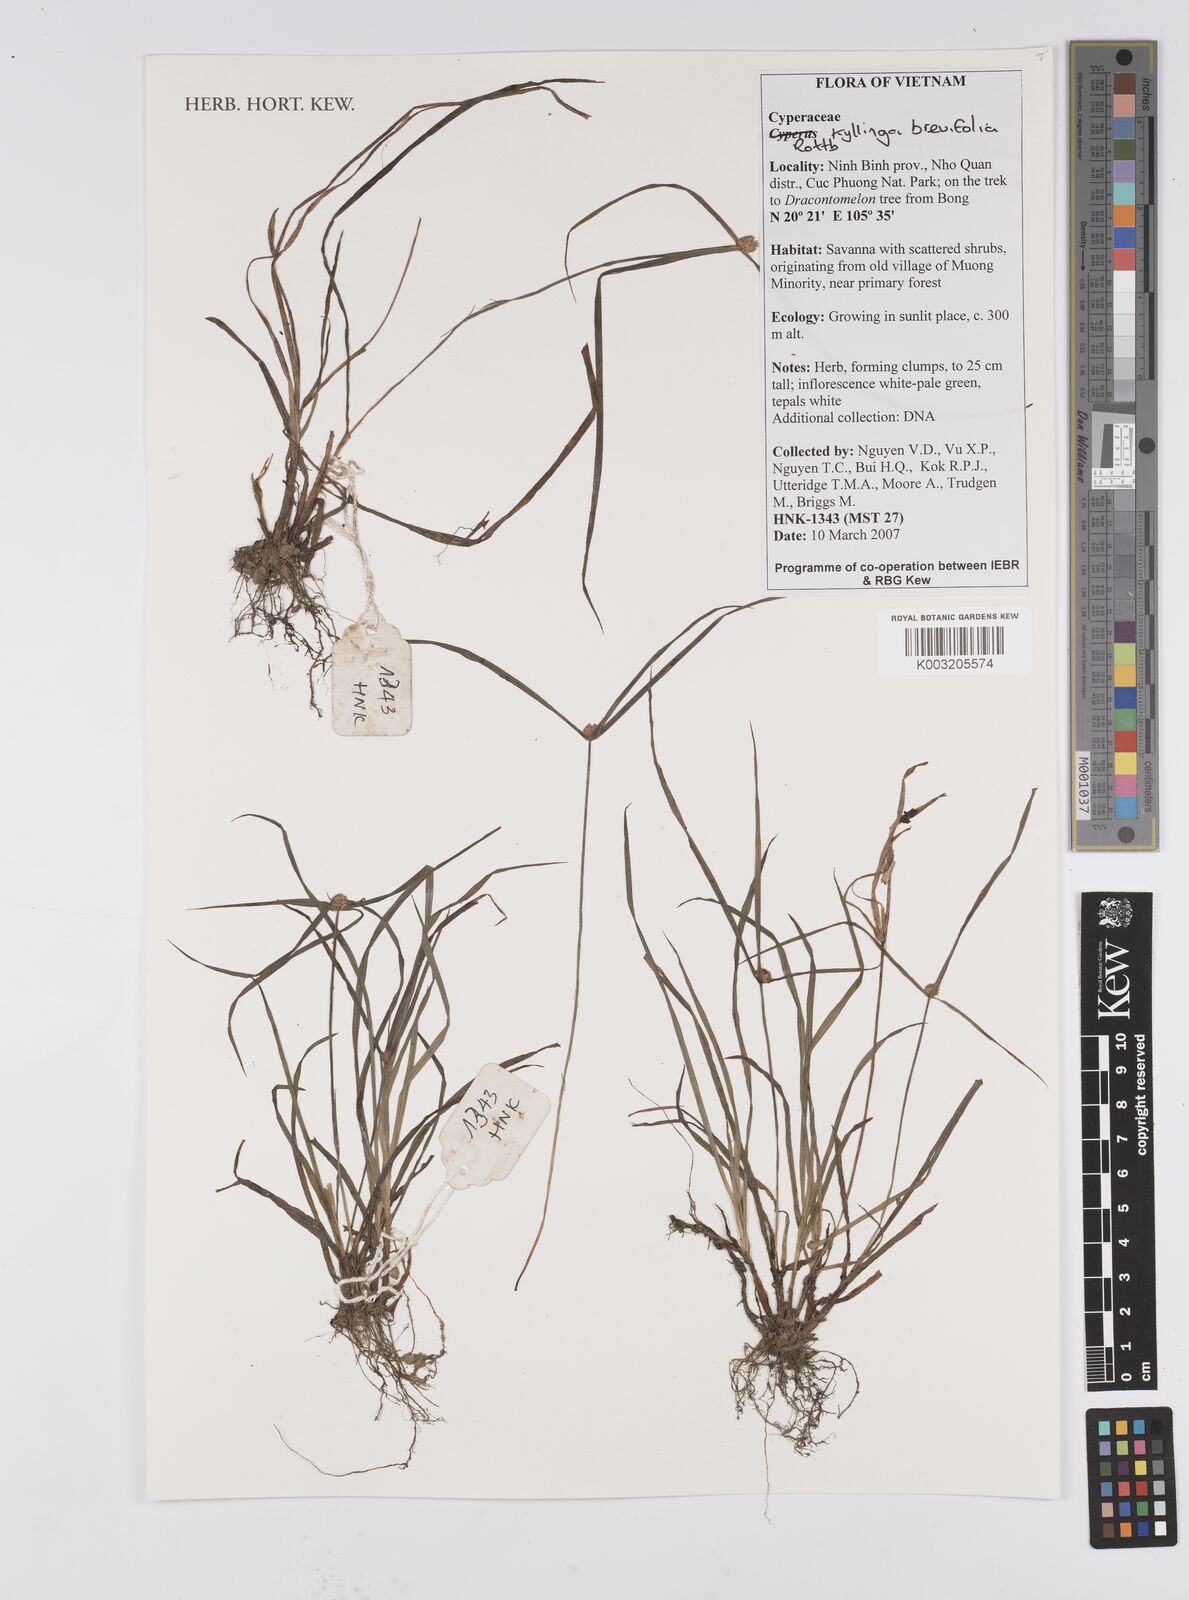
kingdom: Plantae
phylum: Tracheophyta
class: Liliopsida
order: Poales
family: Cyperaceae
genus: Cyperus
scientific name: Cyperus brevifolius
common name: Globe kyllinga
